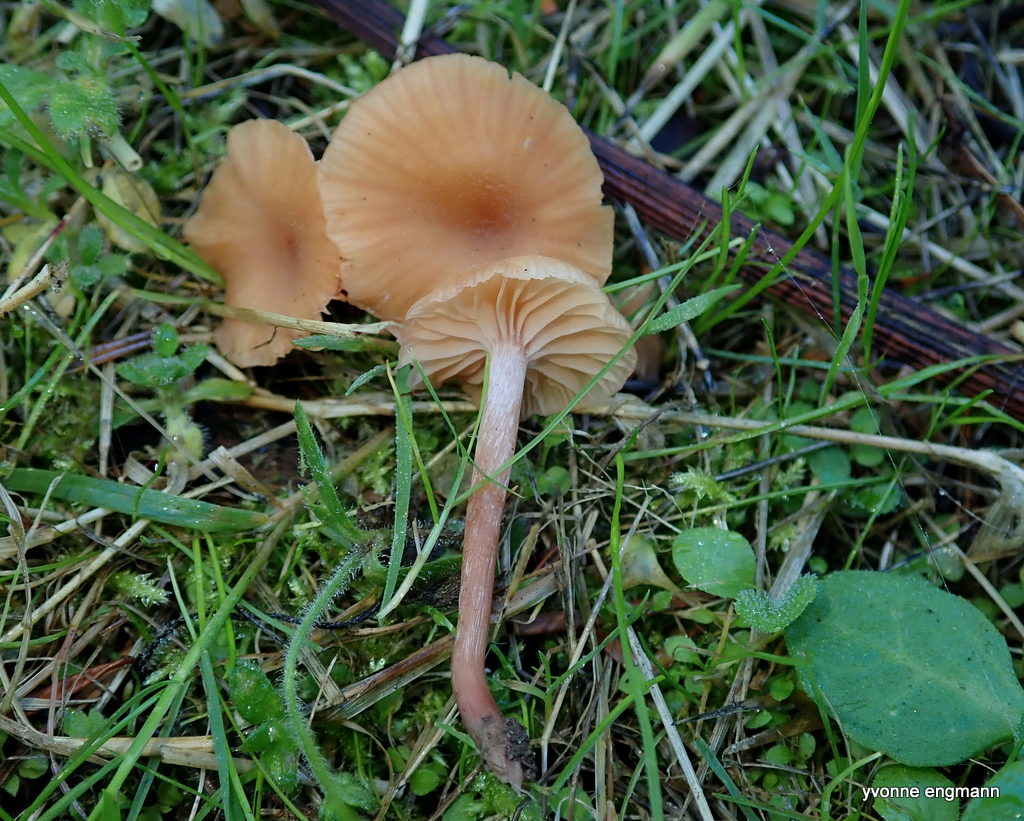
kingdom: Fungi
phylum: Basidiomycota
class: Agaricomycetes
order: Agaricales
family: Hydnangiaceae
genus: Laccaria
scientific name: Laccaria laccata
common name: rød ametysthat
